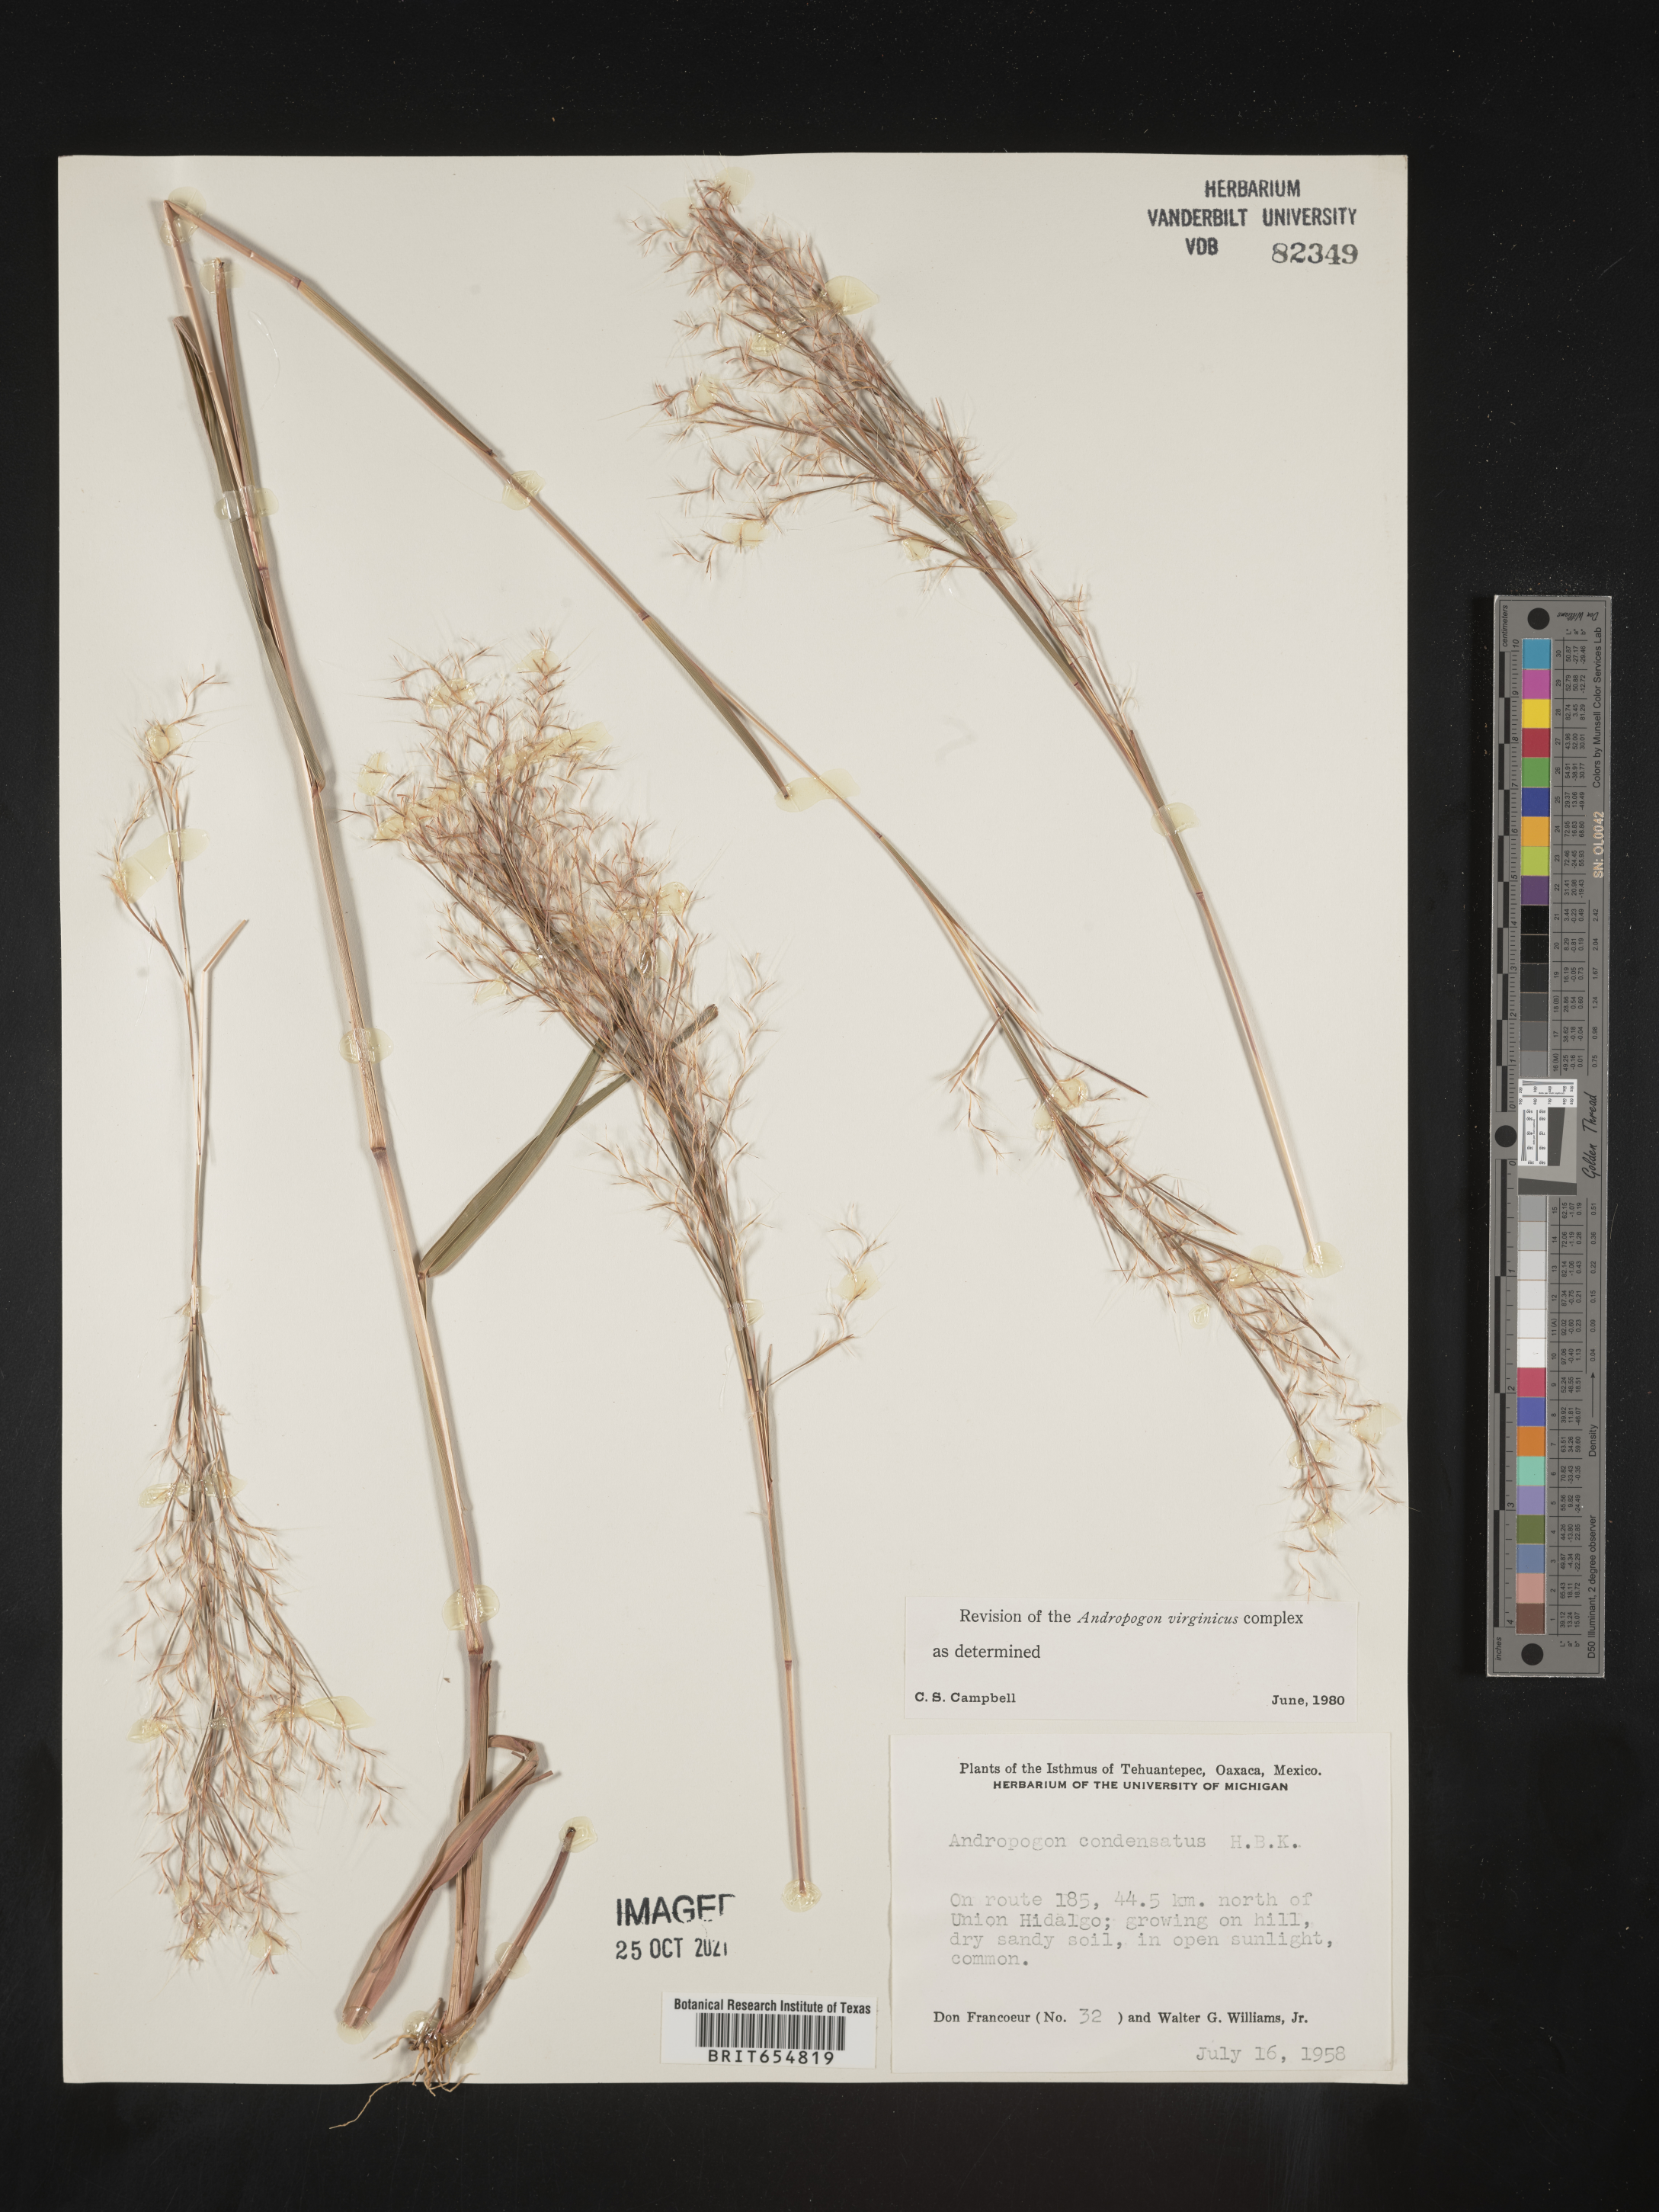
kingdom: Plantae
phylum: Tracheophyta
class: Liliopsida
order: Poales
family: Poaceae
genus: Andropogon
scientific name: Andropogon
